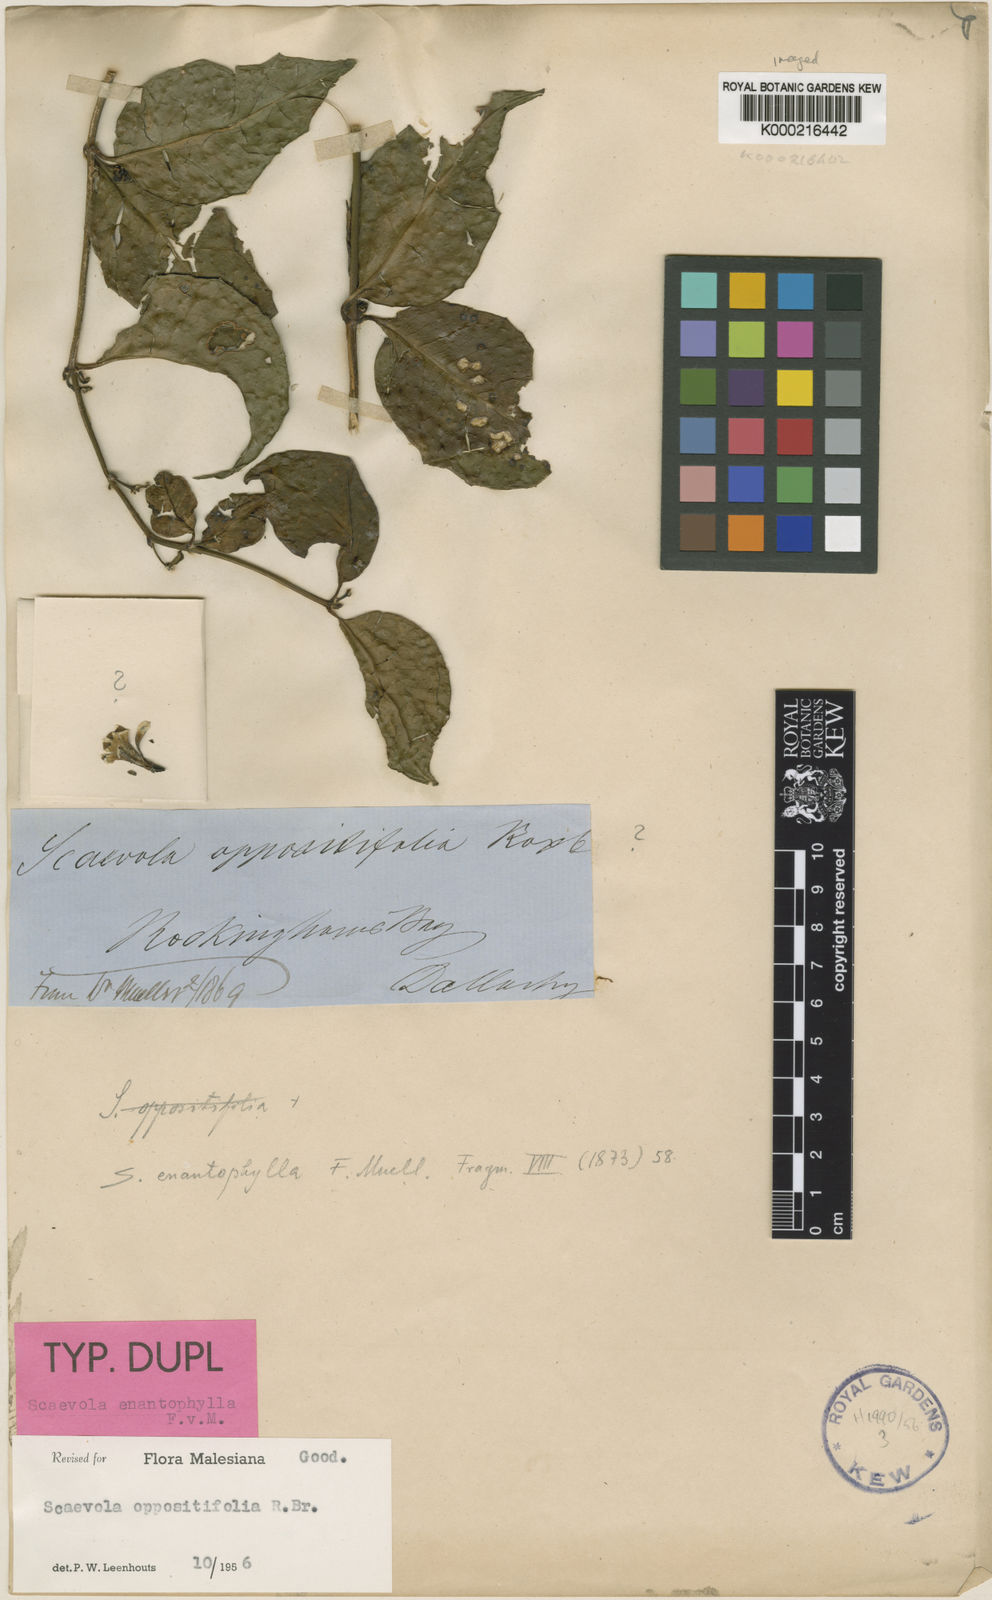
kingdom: Plantae
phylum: Tracheophyta
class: Magnoliopsida
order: Asterales
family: Goodeniaceae
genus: Scaevola
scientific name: Scaevola enantophylla
